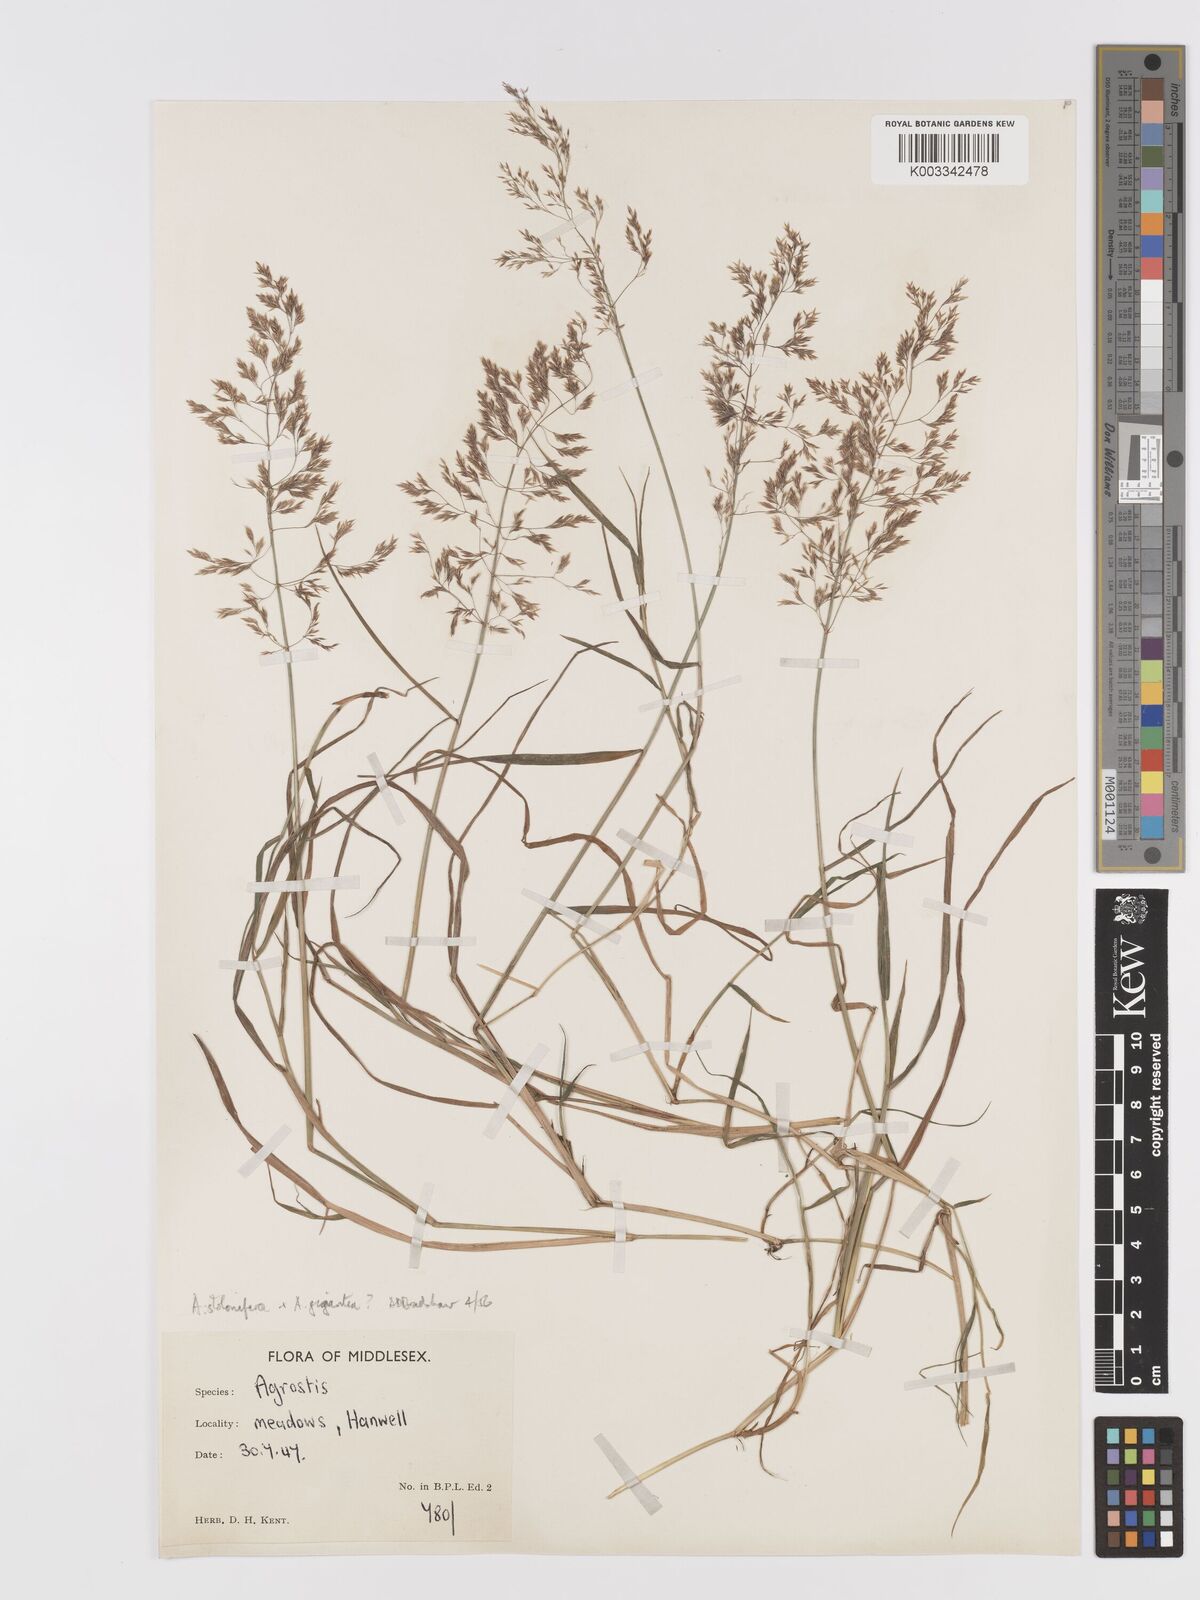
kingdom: Plantae
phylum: Tracheophyta
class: Liliopsida
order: Poales
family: Poaceae
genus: Agrostis
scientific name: Agrostis gigantea
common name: Black bent
